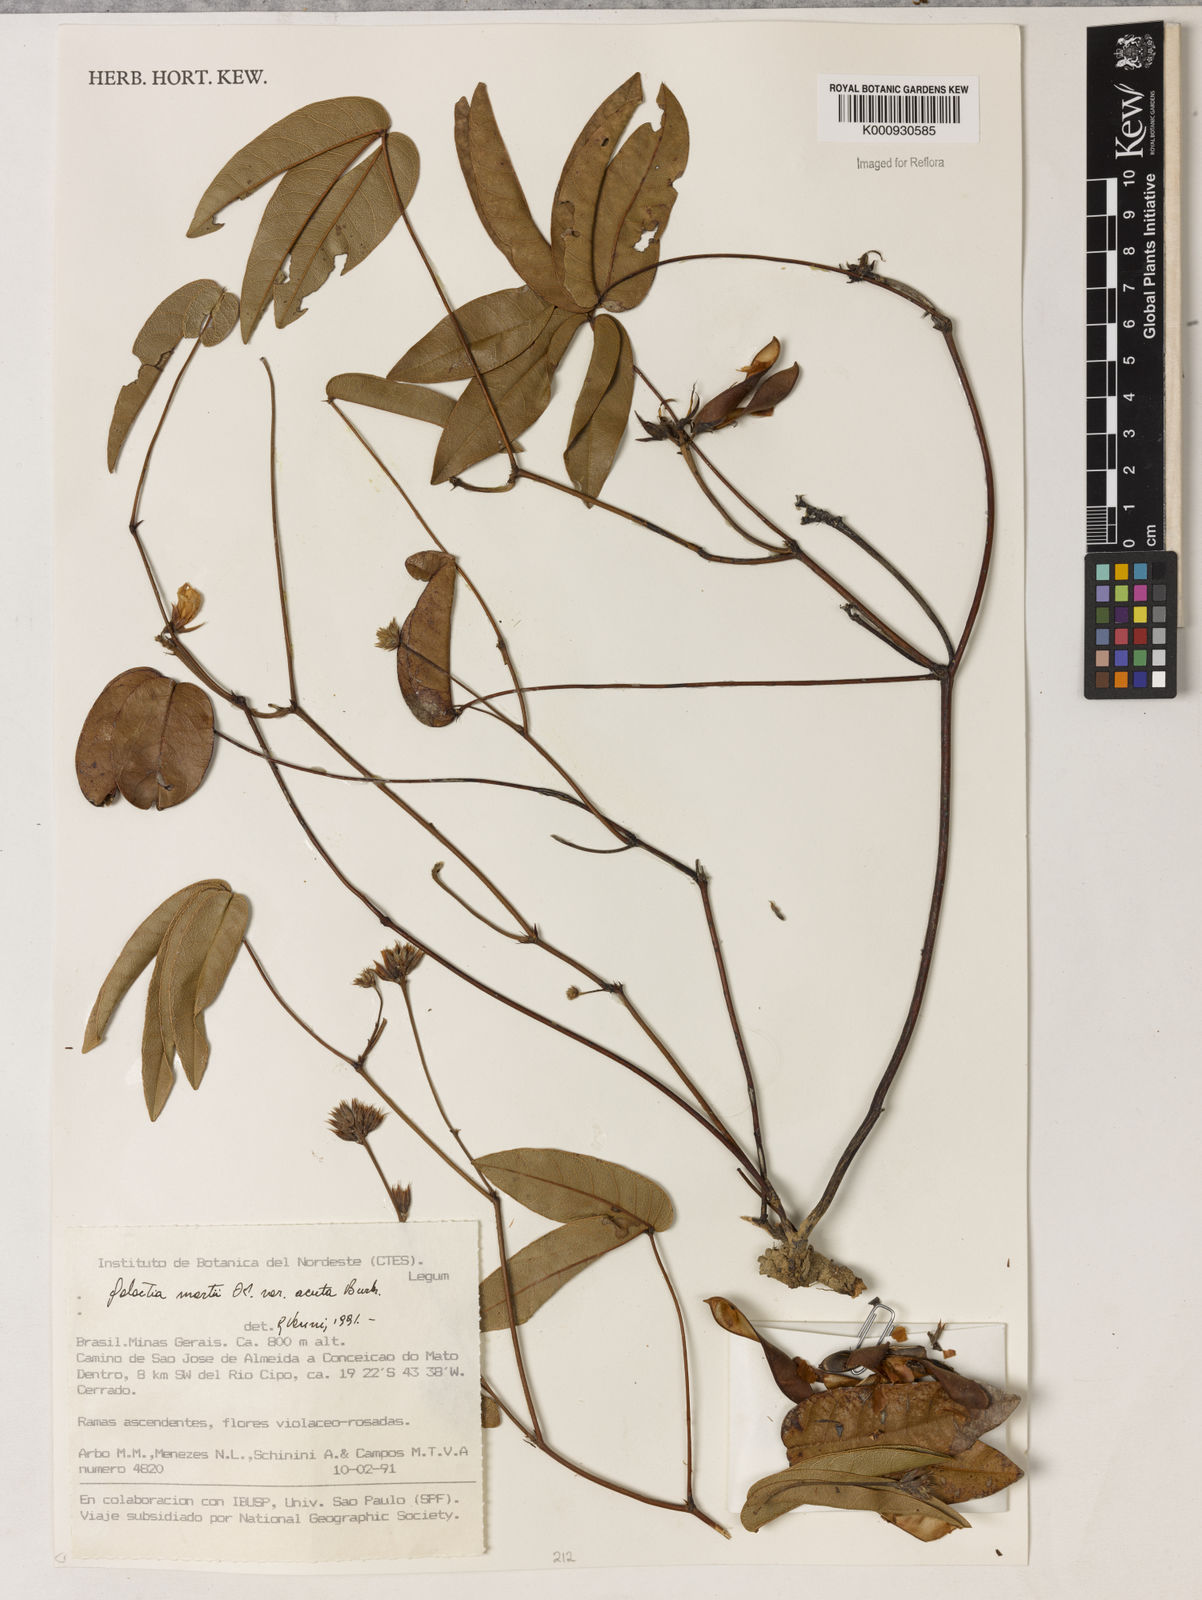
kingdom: Plantae
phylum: Tracheophyta
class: Magnoliopsida
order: Fabales
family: Fabaceae
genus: Betencourtia
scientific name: Betencourtia neesii
